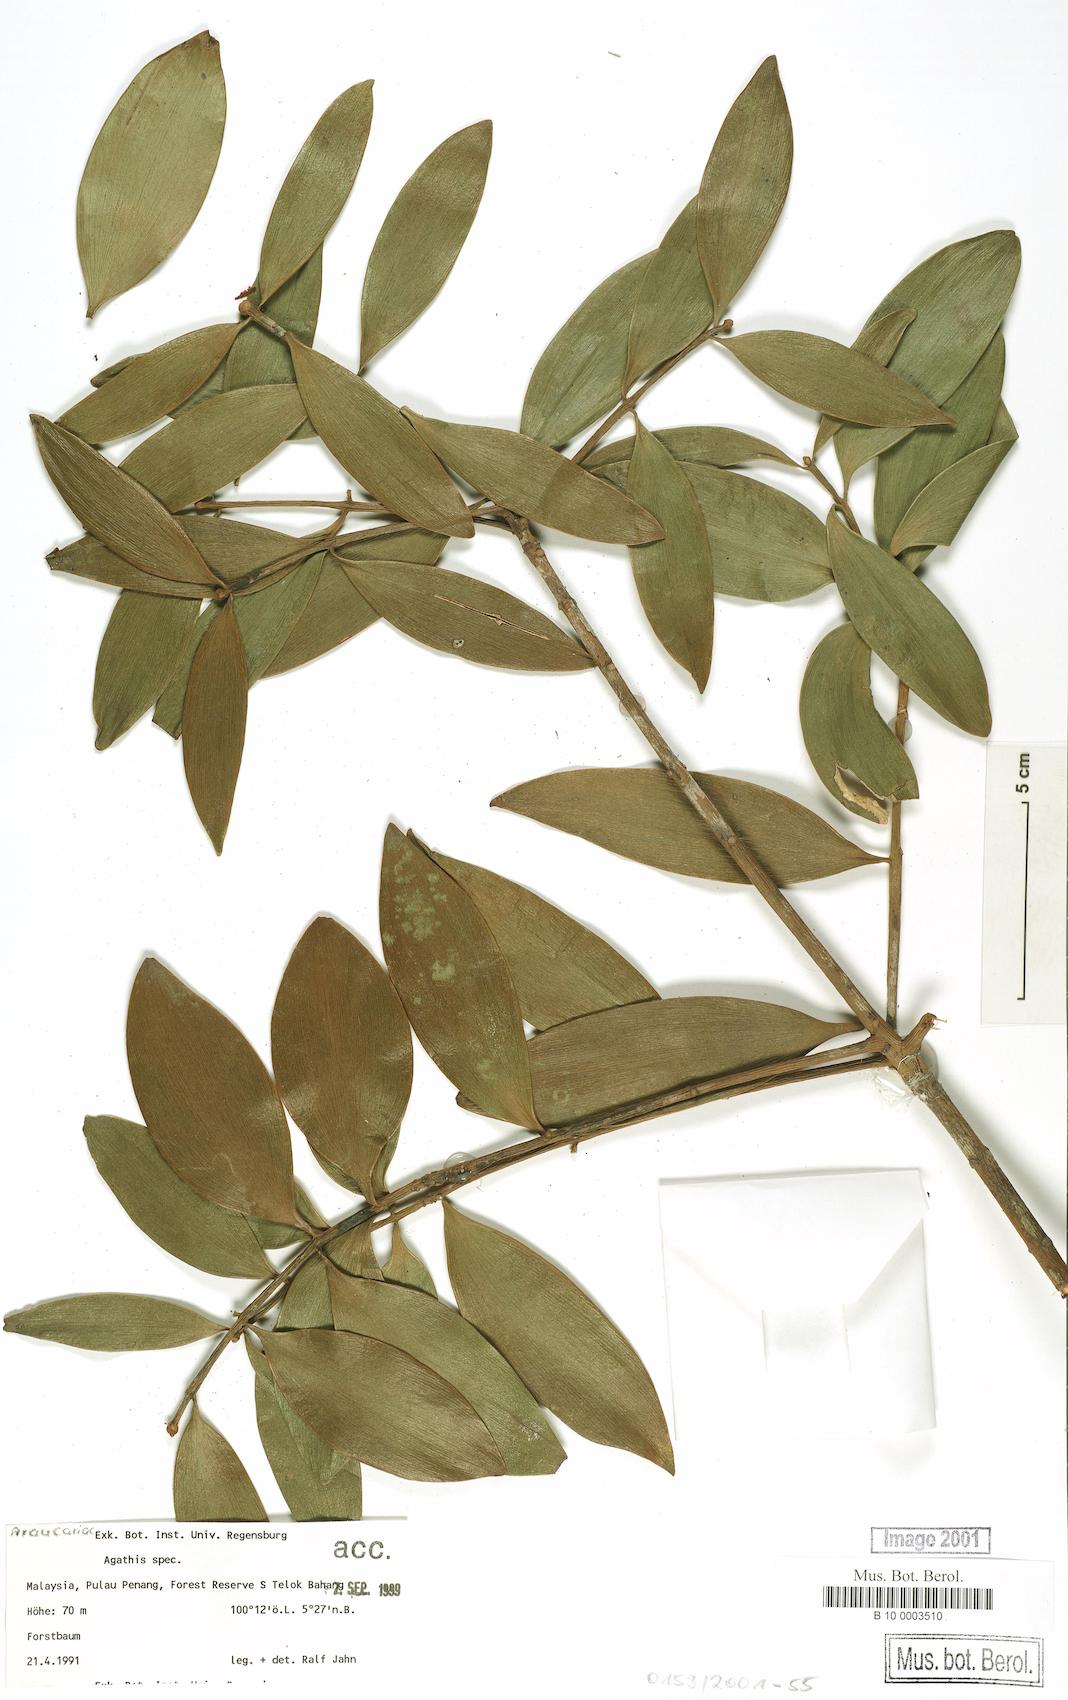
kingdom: Plantae
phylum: Tracheophyta
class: Pinopsida
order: Pinales
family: Araucariaceae
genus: Agathis
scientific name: Agathis
